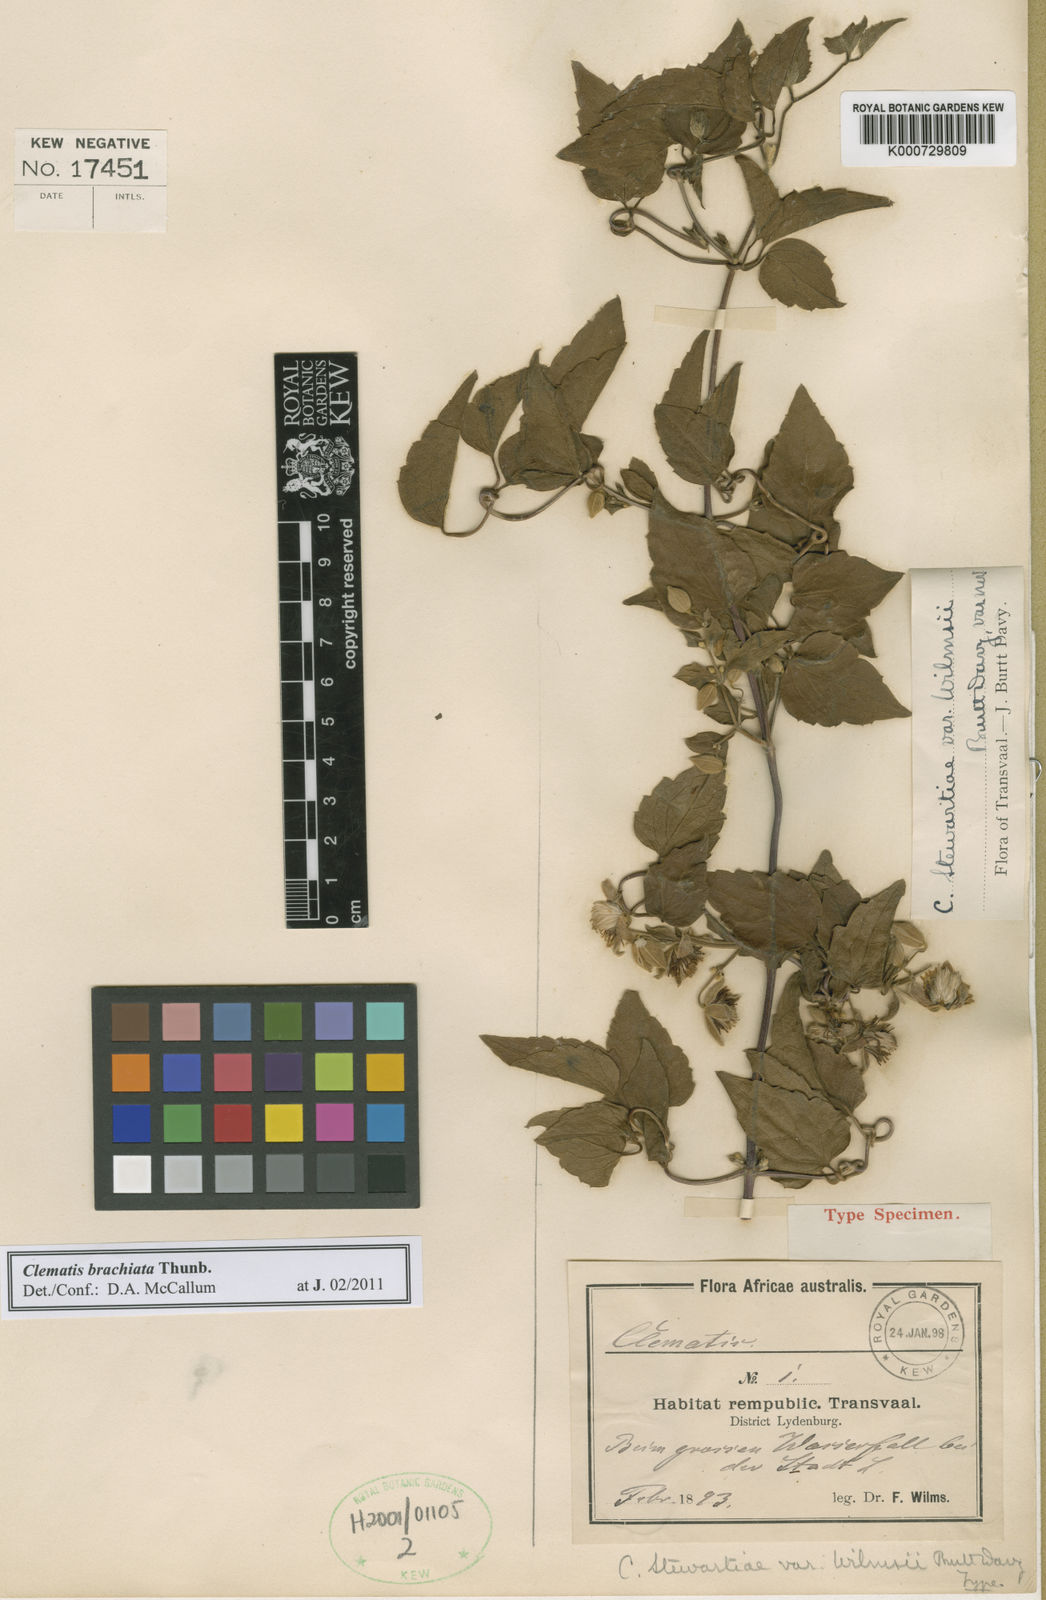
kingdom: Plantae
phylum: Tracheophyta
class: Magnoliopsida
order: Ranunculales
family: Ranunculaceae
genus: Clematis
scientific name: Clematis brachiata
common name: Traveler's-joy
